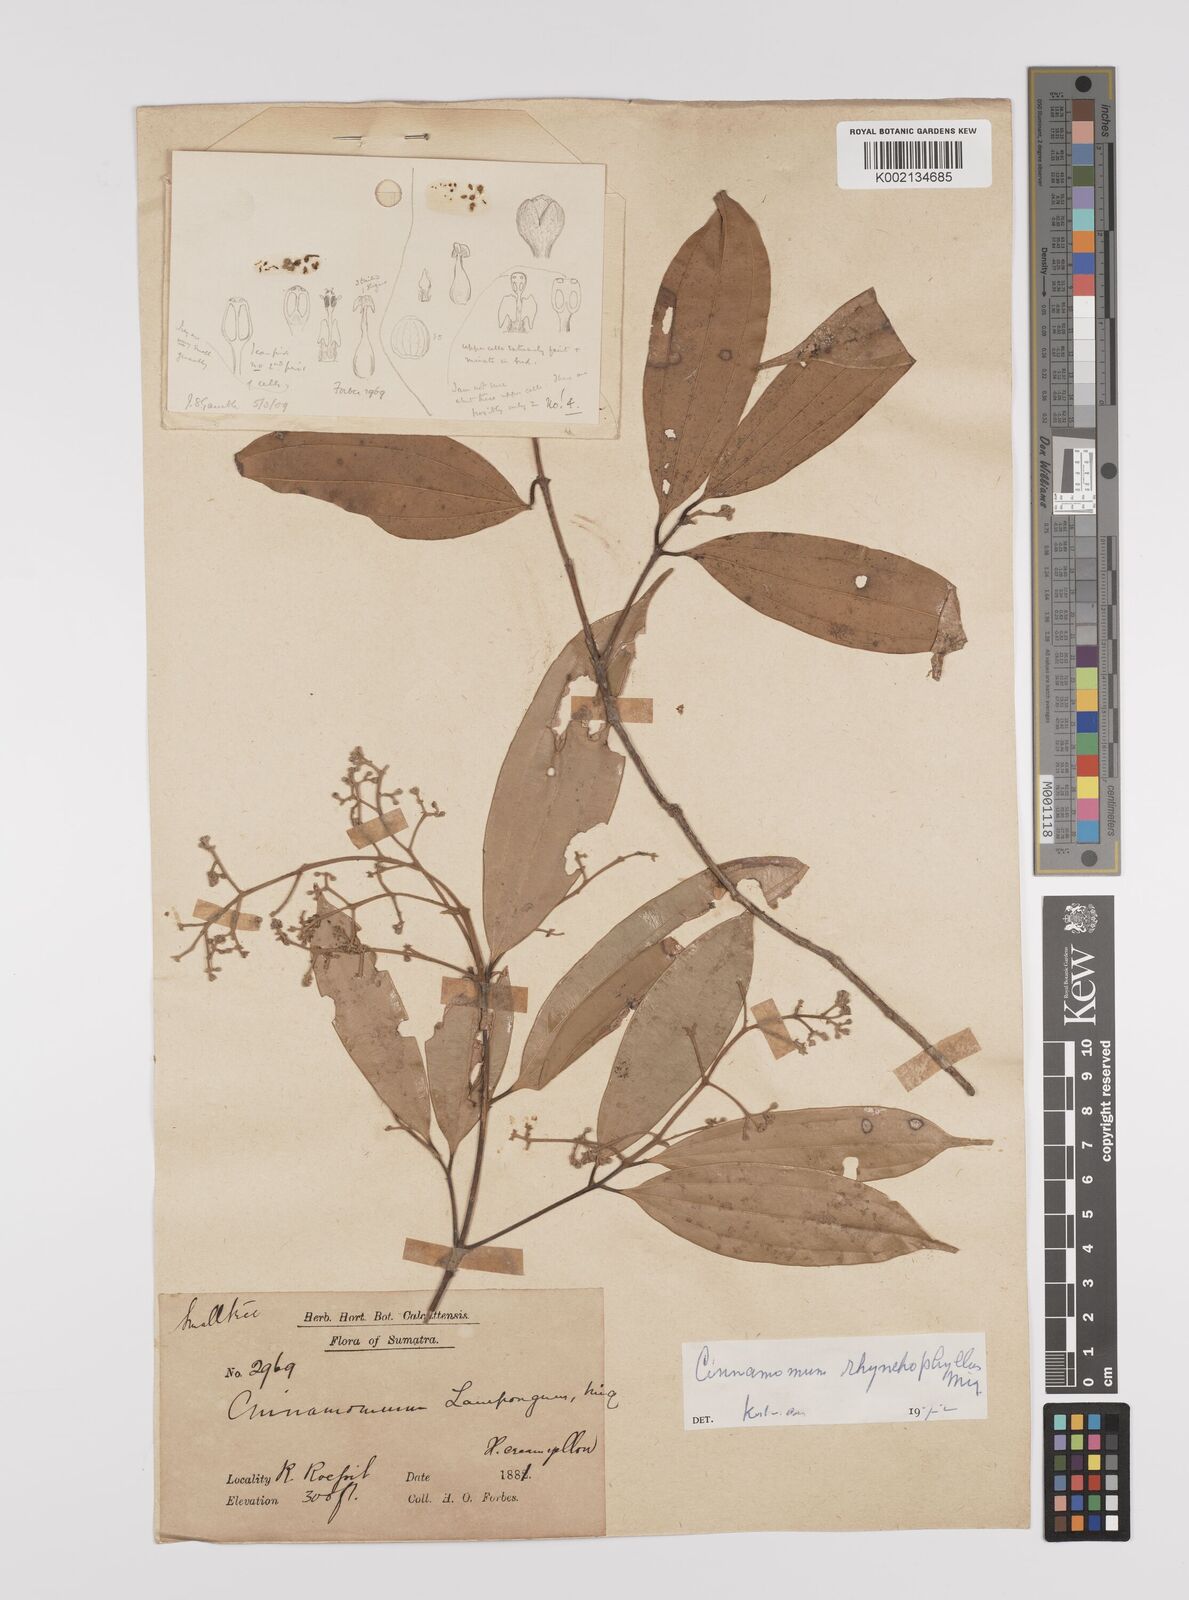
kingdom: Plantae
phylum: Tracheophyta
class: Magnoliopsida
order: Laurales
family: Lauraceae
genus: Cinnamomum
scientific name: Cinnamomum rhynchophyllum
